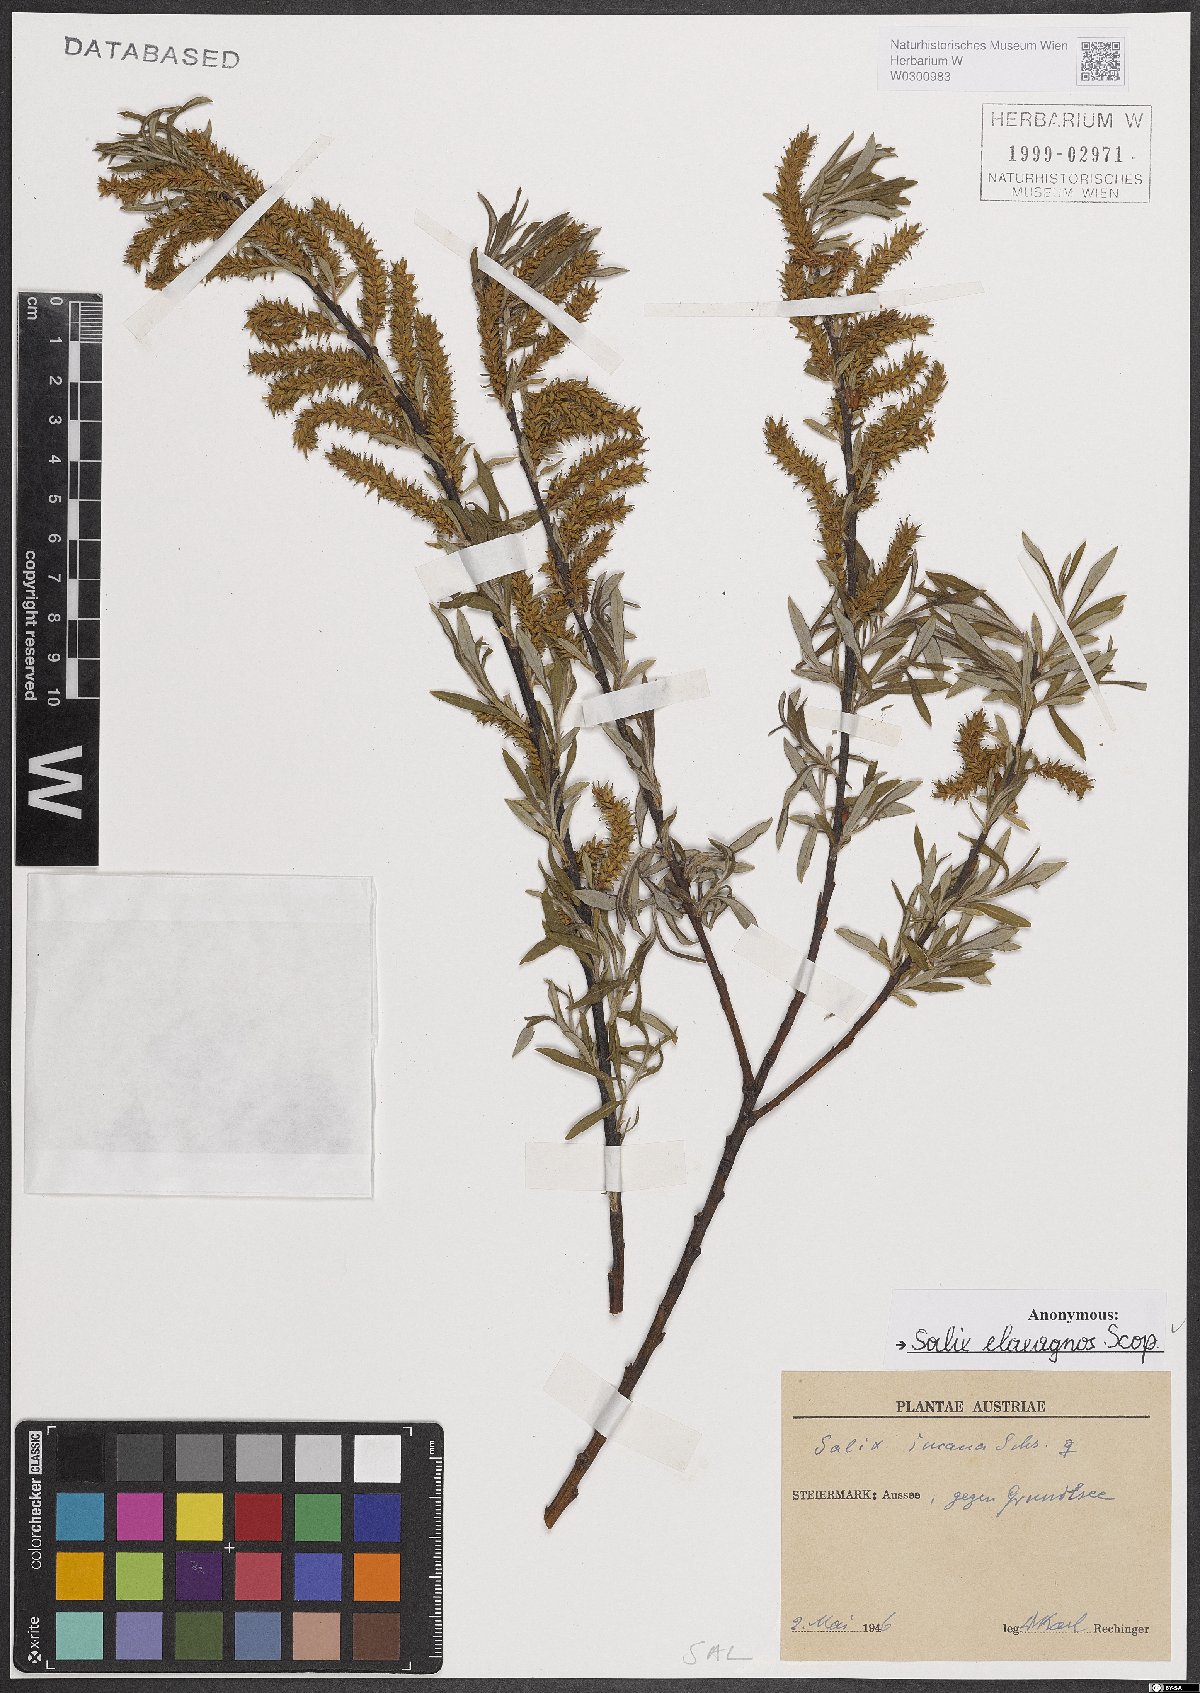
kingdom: Plantae
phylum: Tracheophyta
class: Magnoliopsida
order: Malpighiales
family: Salicaceae
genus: Salix
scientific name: Salix eleagnos
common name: Elaeagnus willow
